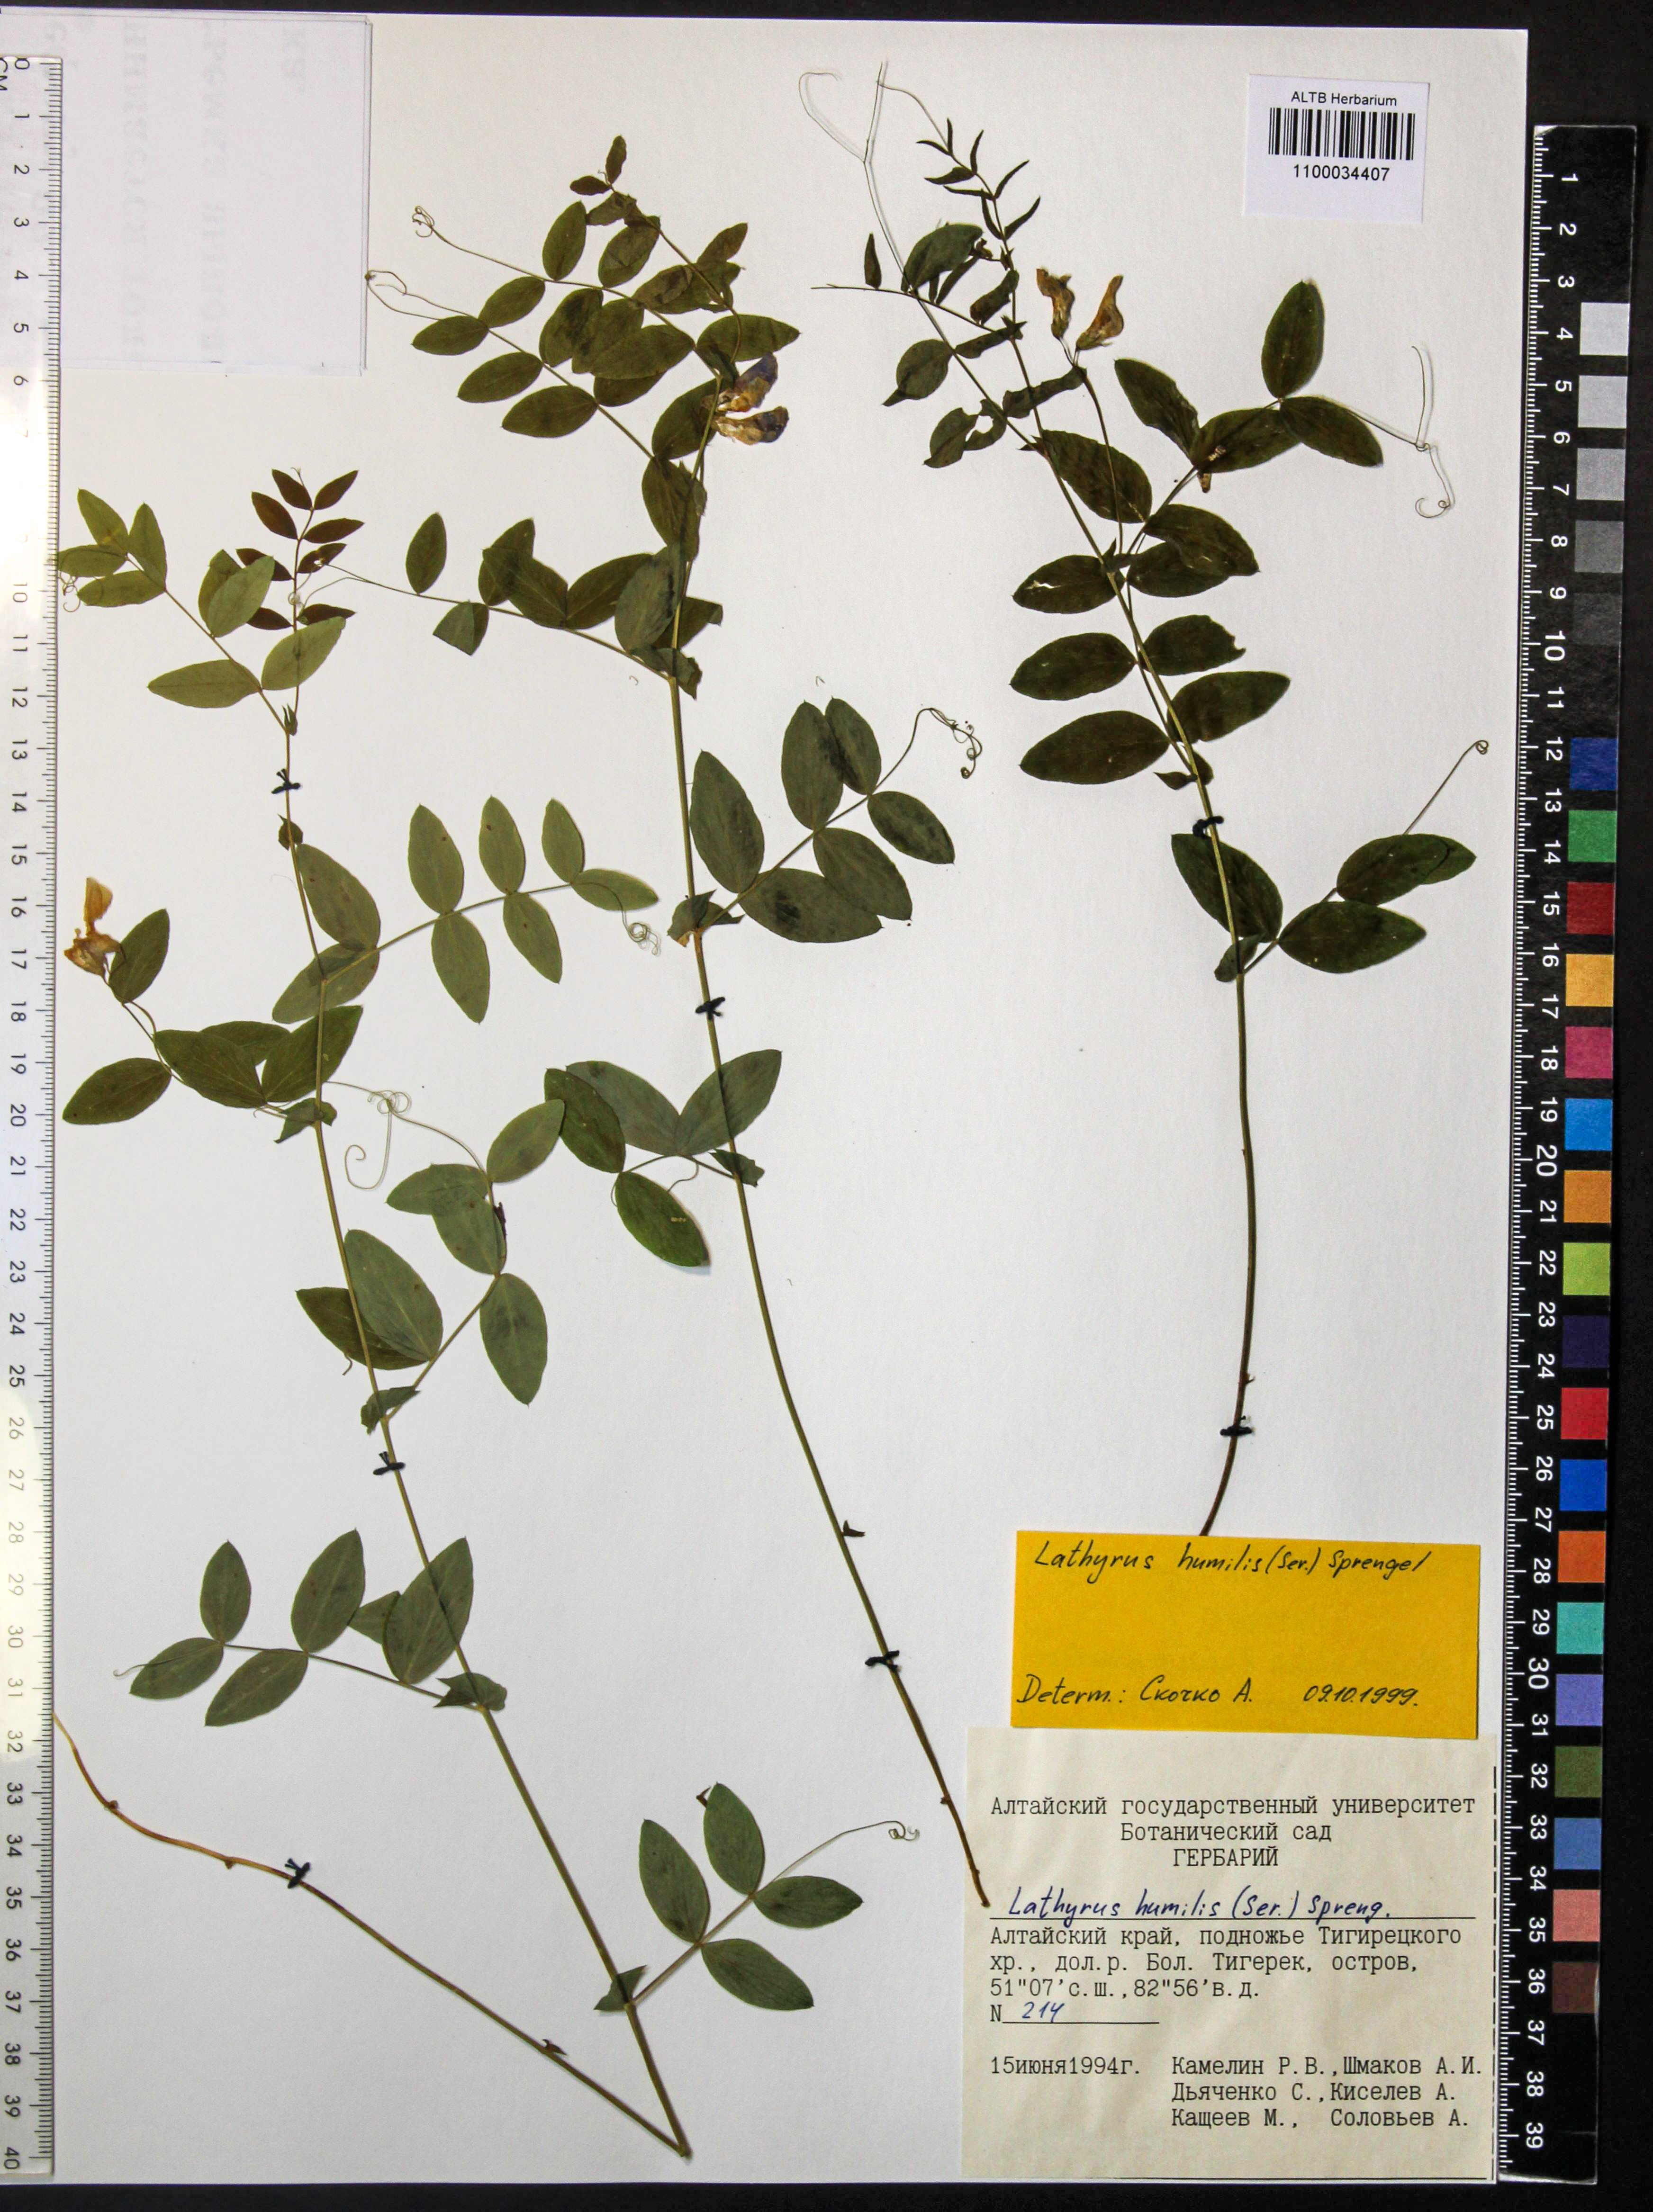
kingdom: Plantae
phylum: Tracheophyta
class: Magnoliopsida
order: Fabales
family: Fabaceae
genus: Lathyrus
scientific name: Lathyrus humilis
